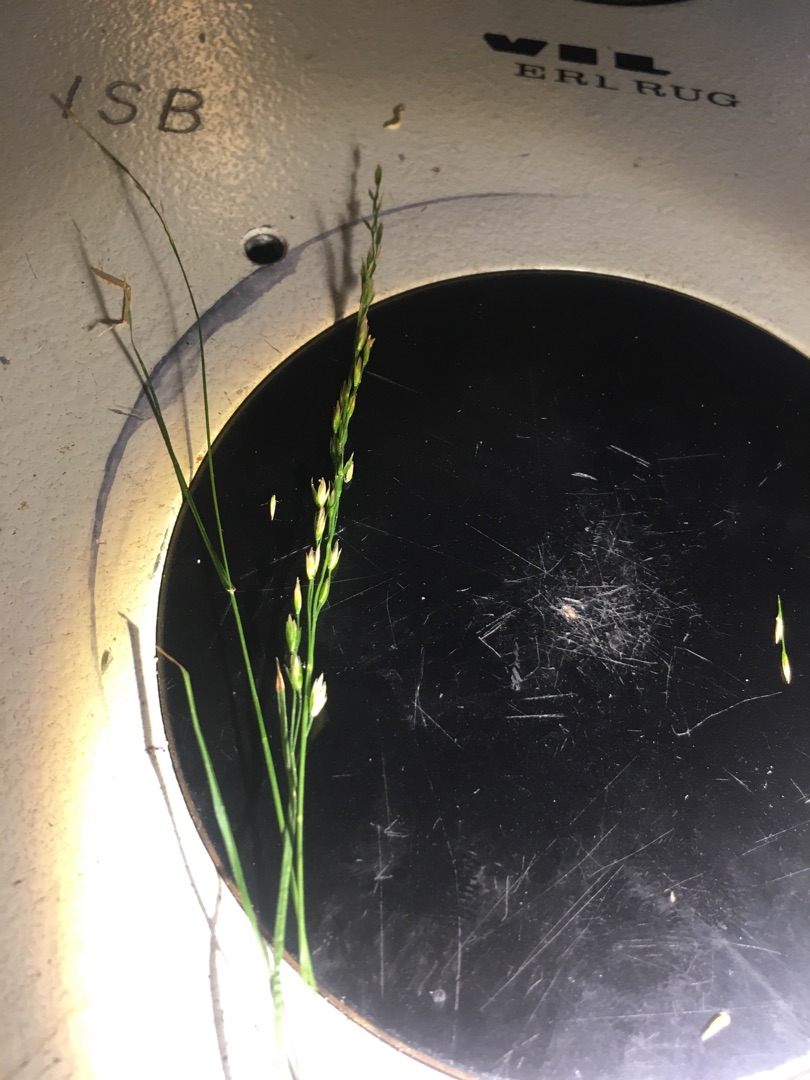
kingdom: Plantae
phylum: Tracheophyta
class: Liliopsida
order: Poales
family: Poaceae
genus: Poa
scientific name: Poa nemoralis
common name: Lund-rapgræs
